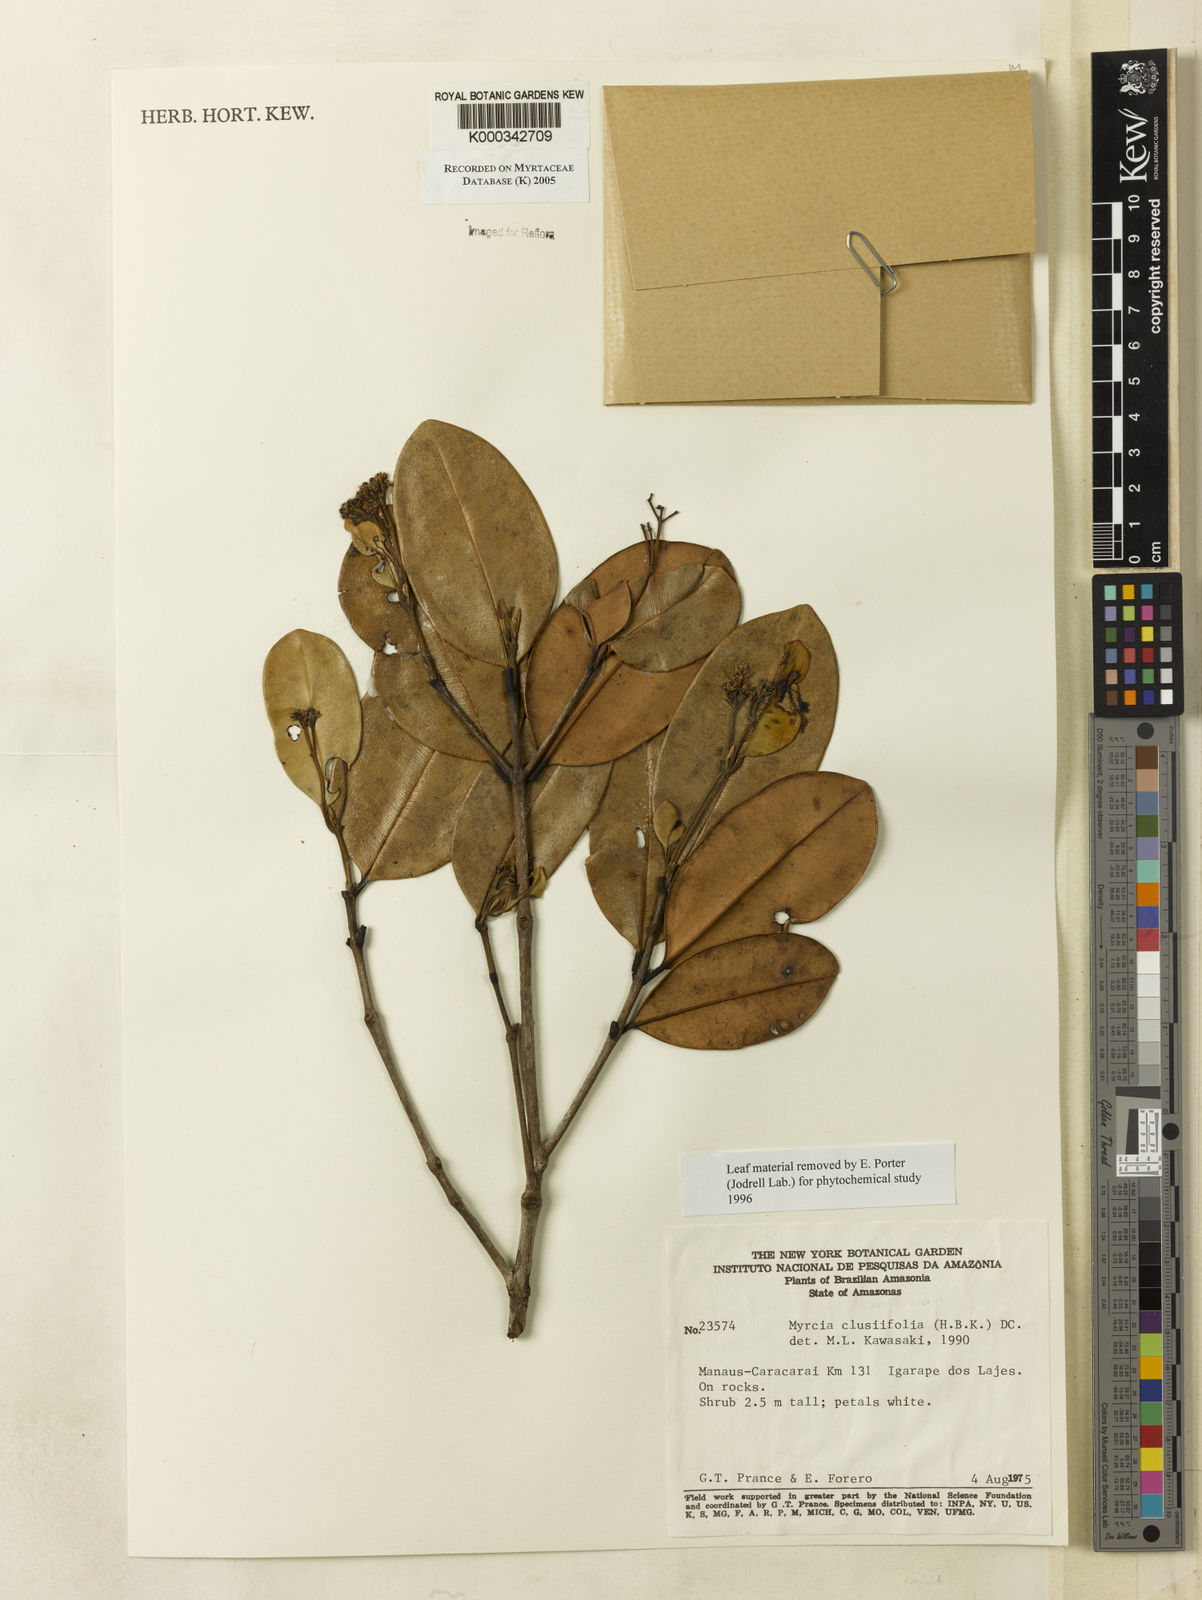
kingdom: Plantae
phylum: Tracheophyta
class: Magnoliopsida
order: Myrtales
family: Myrtaceae
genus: Myrcia
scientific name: Myrcia clusiifolia
